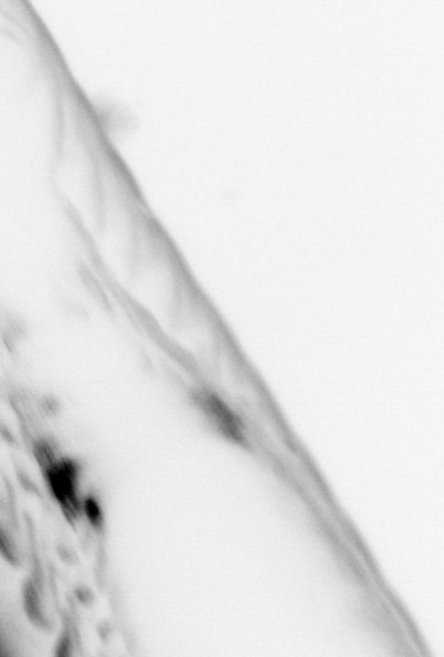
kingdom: Animalia
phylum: Chaetognatha
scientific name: Chaetognatha
